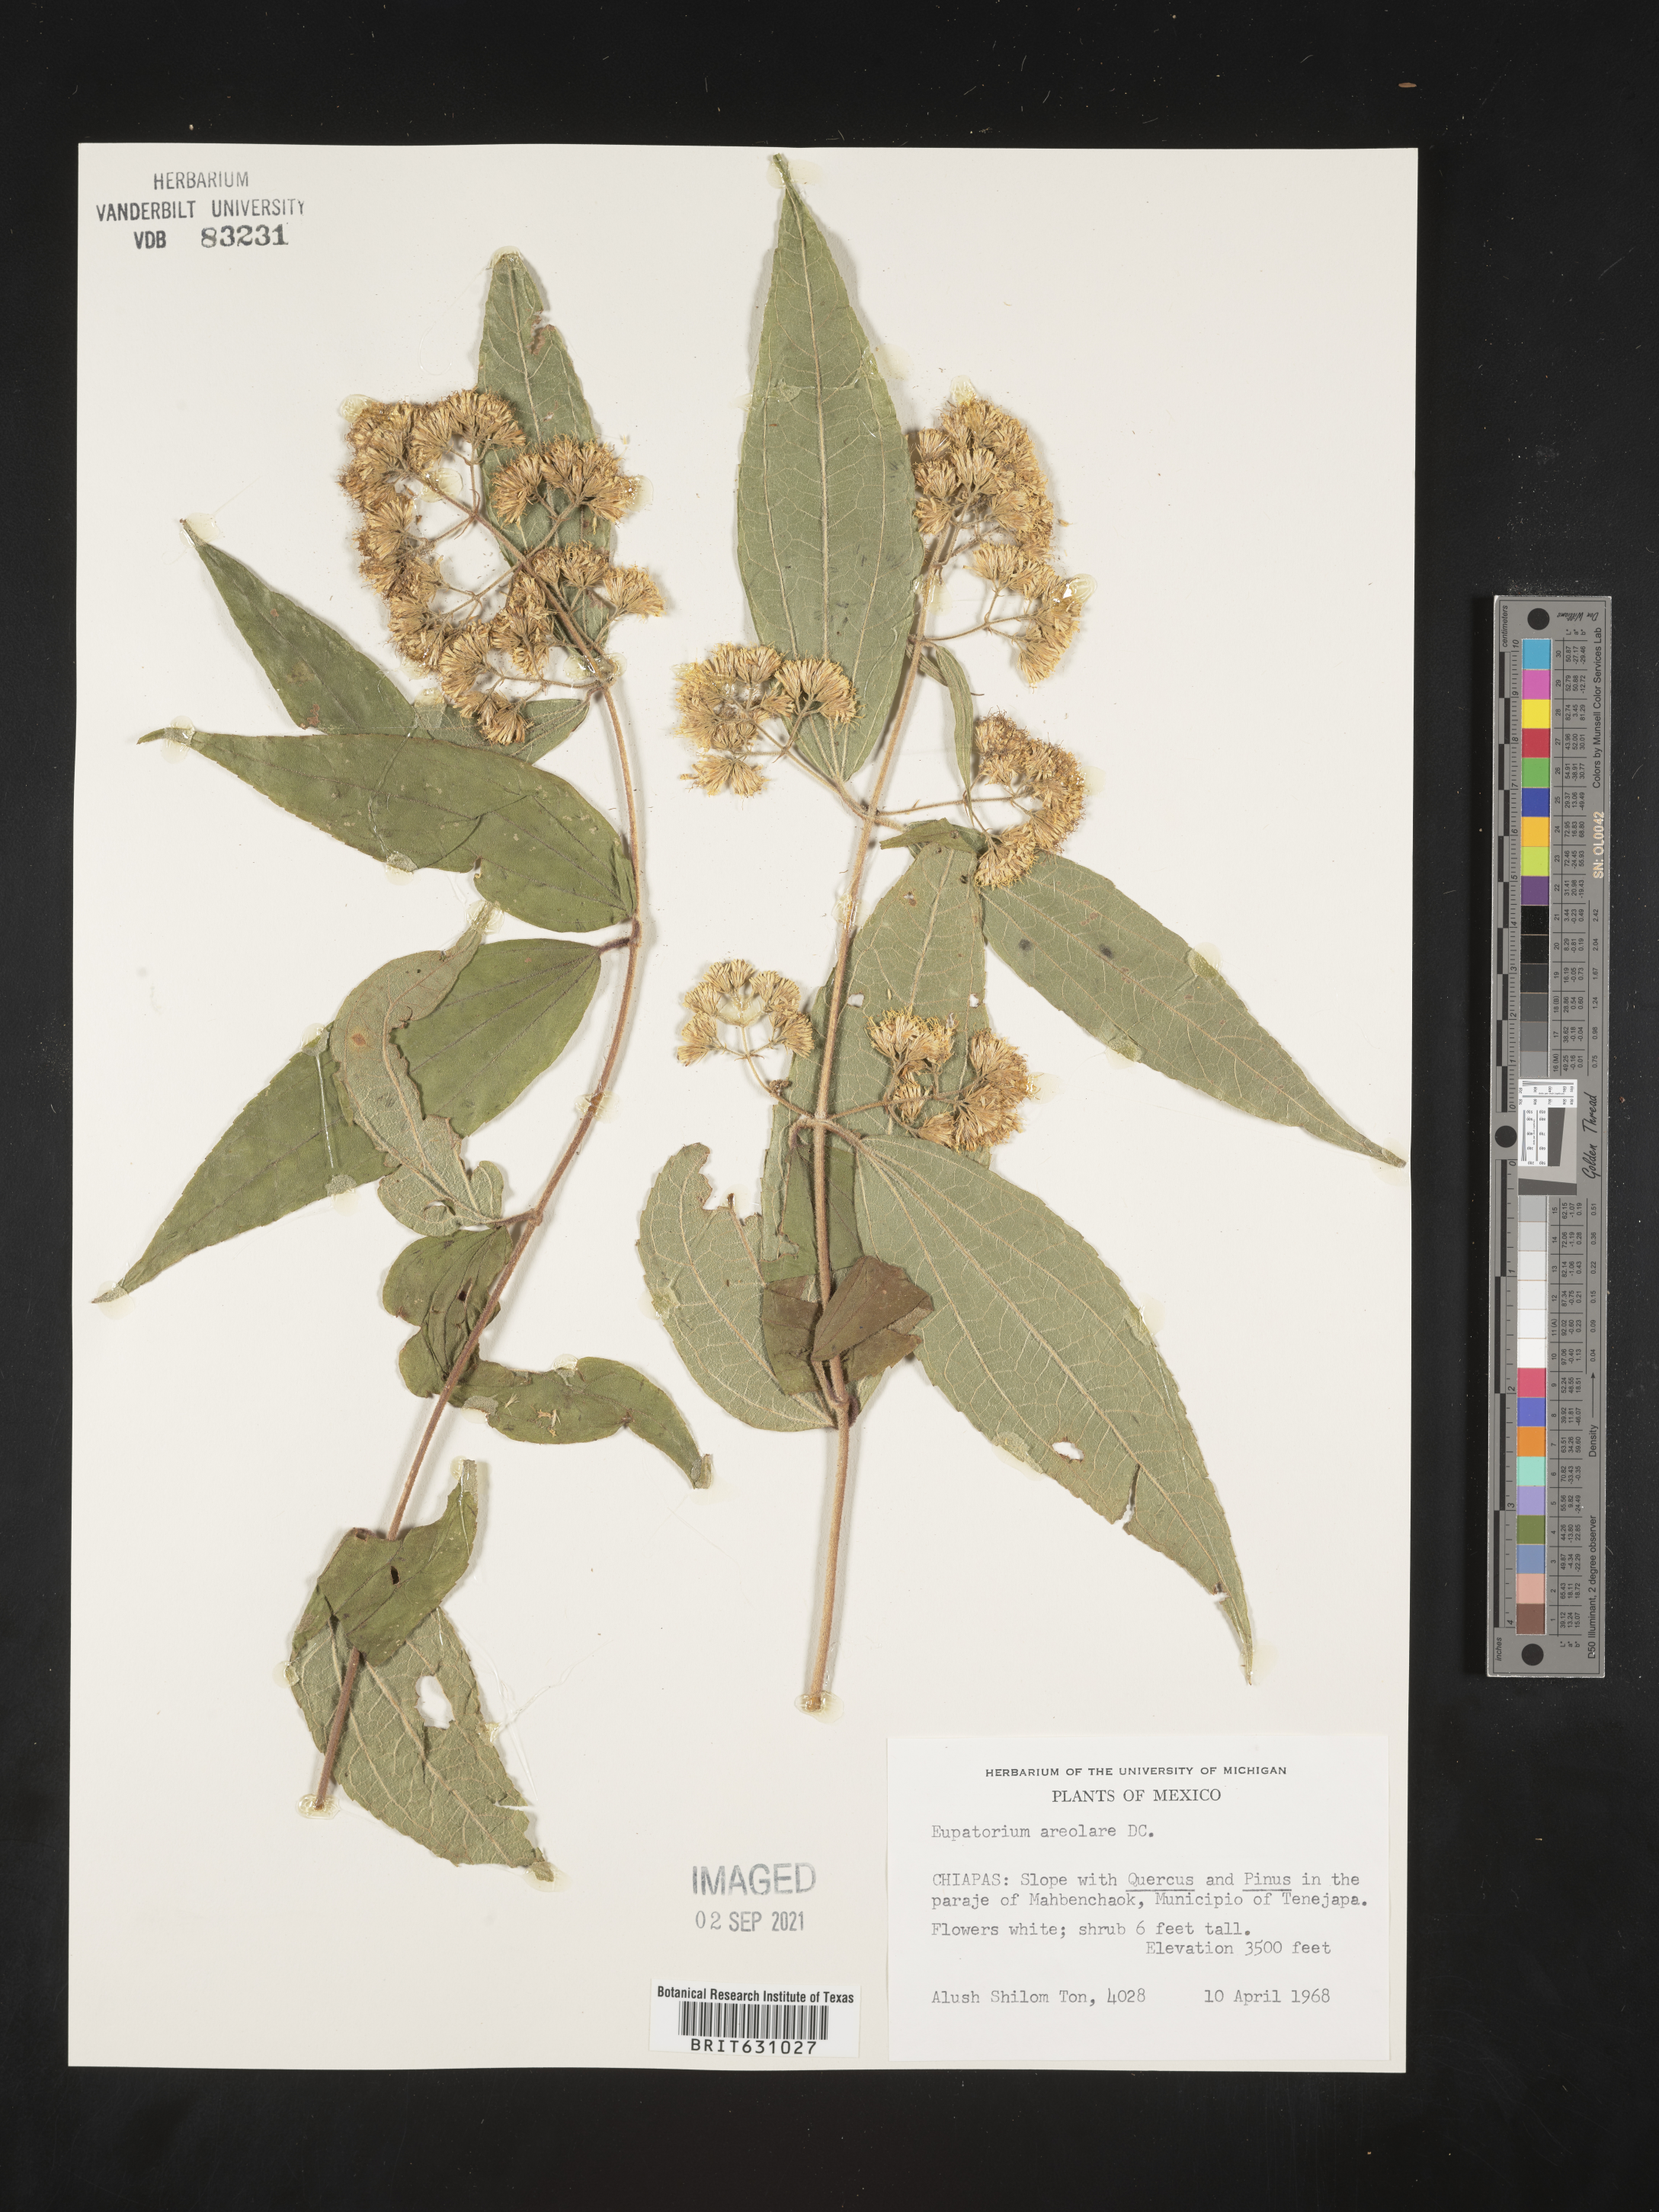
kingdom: Plantae
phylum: Tracheophyta
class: Magnoliopsida
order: Asterales
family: Asteraceae
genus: Eupatorium
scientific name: Eupatorium
